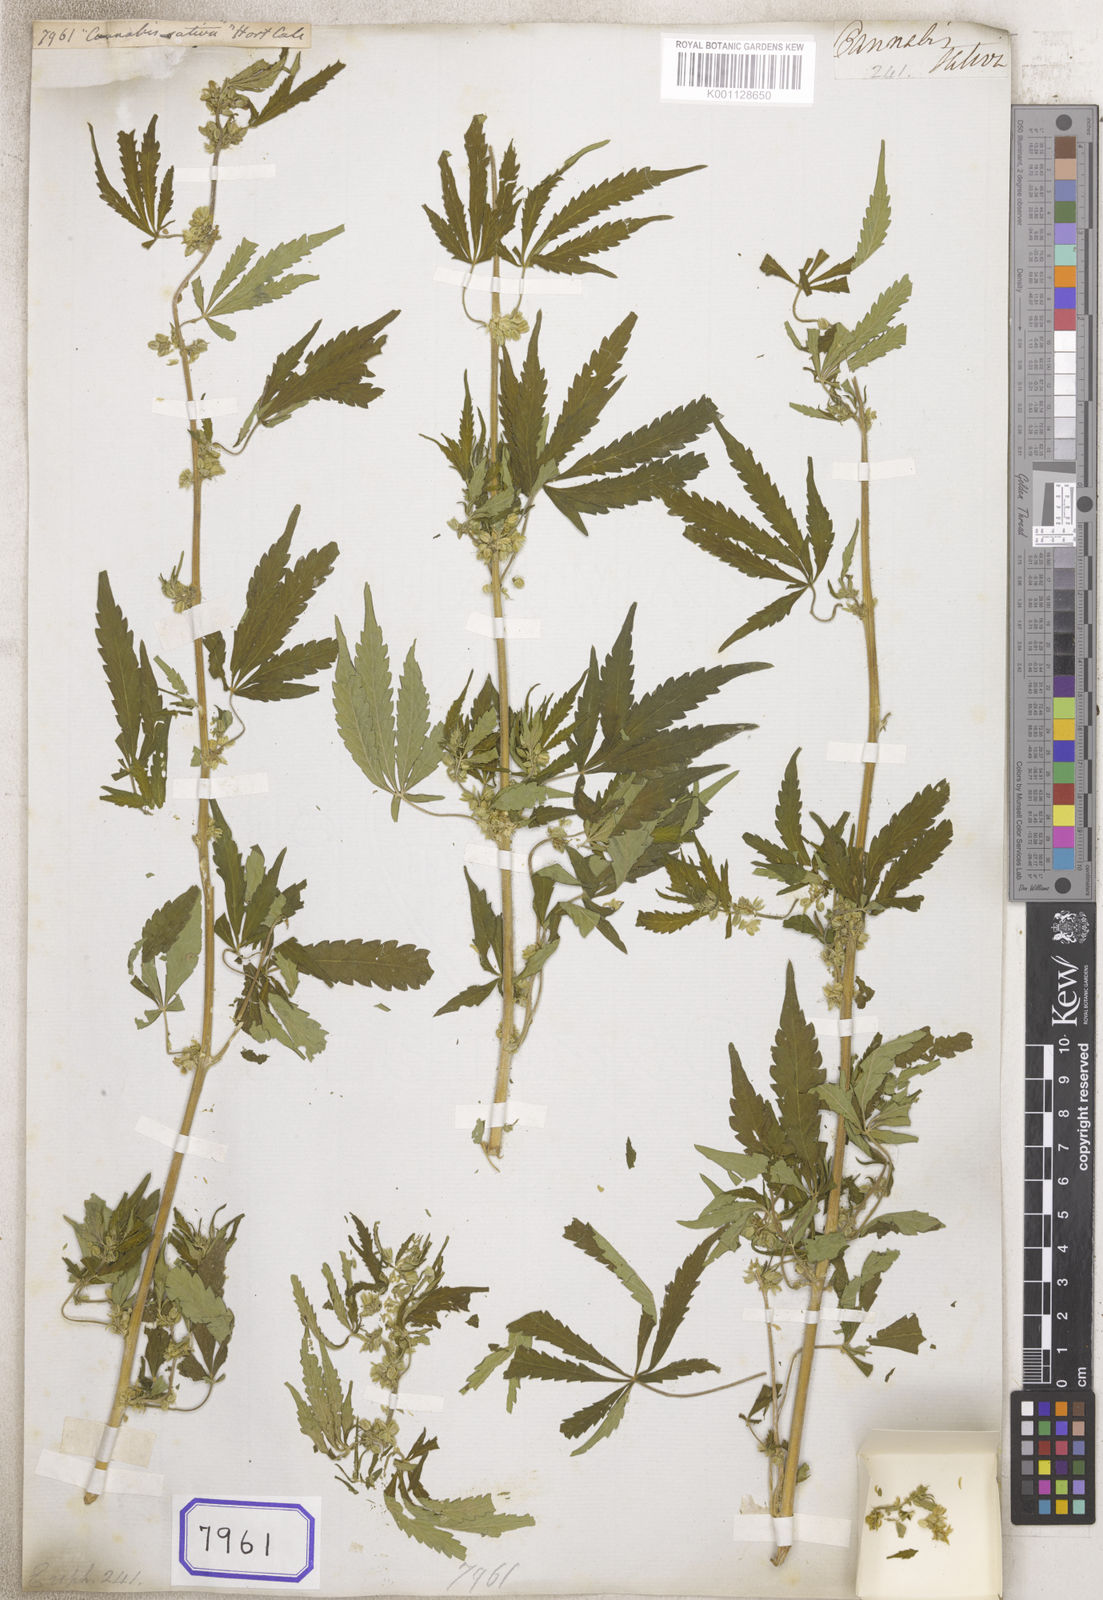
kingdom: Plantae
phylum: Tracheophyta
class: Magnoliopsida
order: Malpighiales
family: Euphorbiaceae
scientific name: Euphorbiaceae
